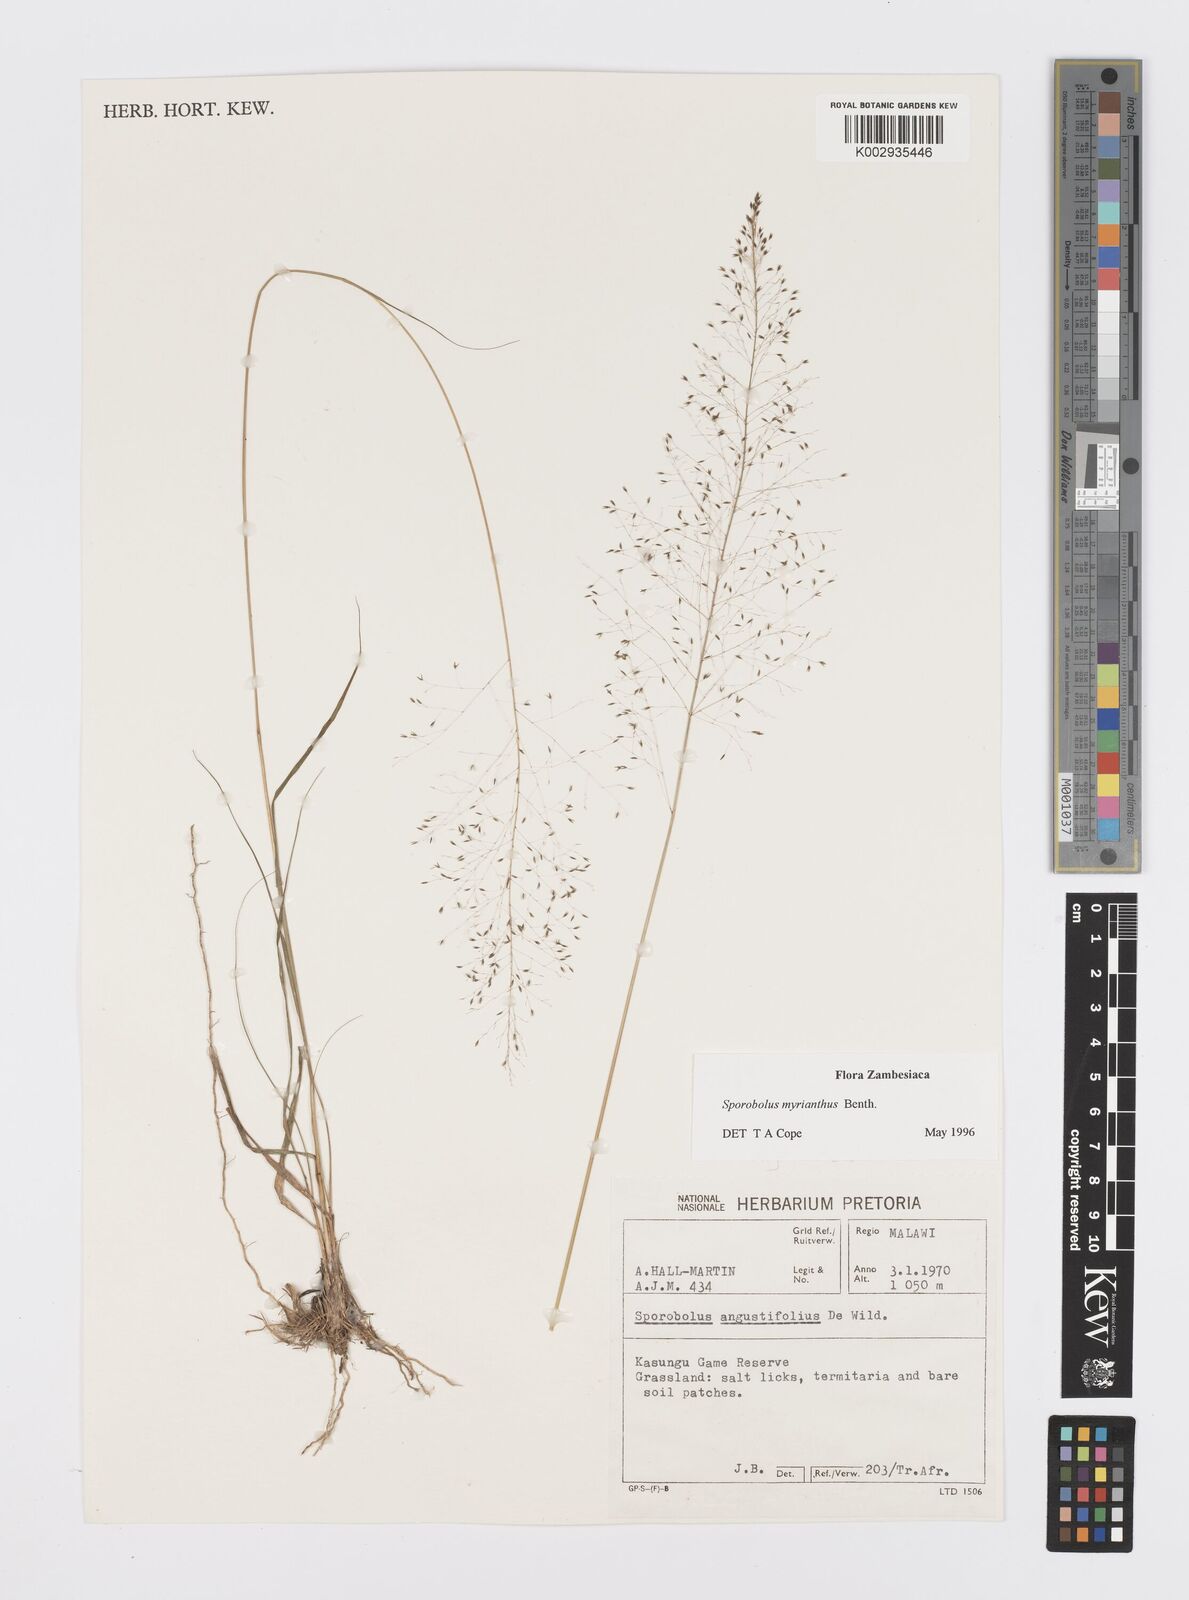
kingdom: Plantae
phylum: Tracheophyta
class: Liliopsida
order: Poales
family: Poaceae
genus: Sporobolus
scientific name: Sporobolus myrianthus
